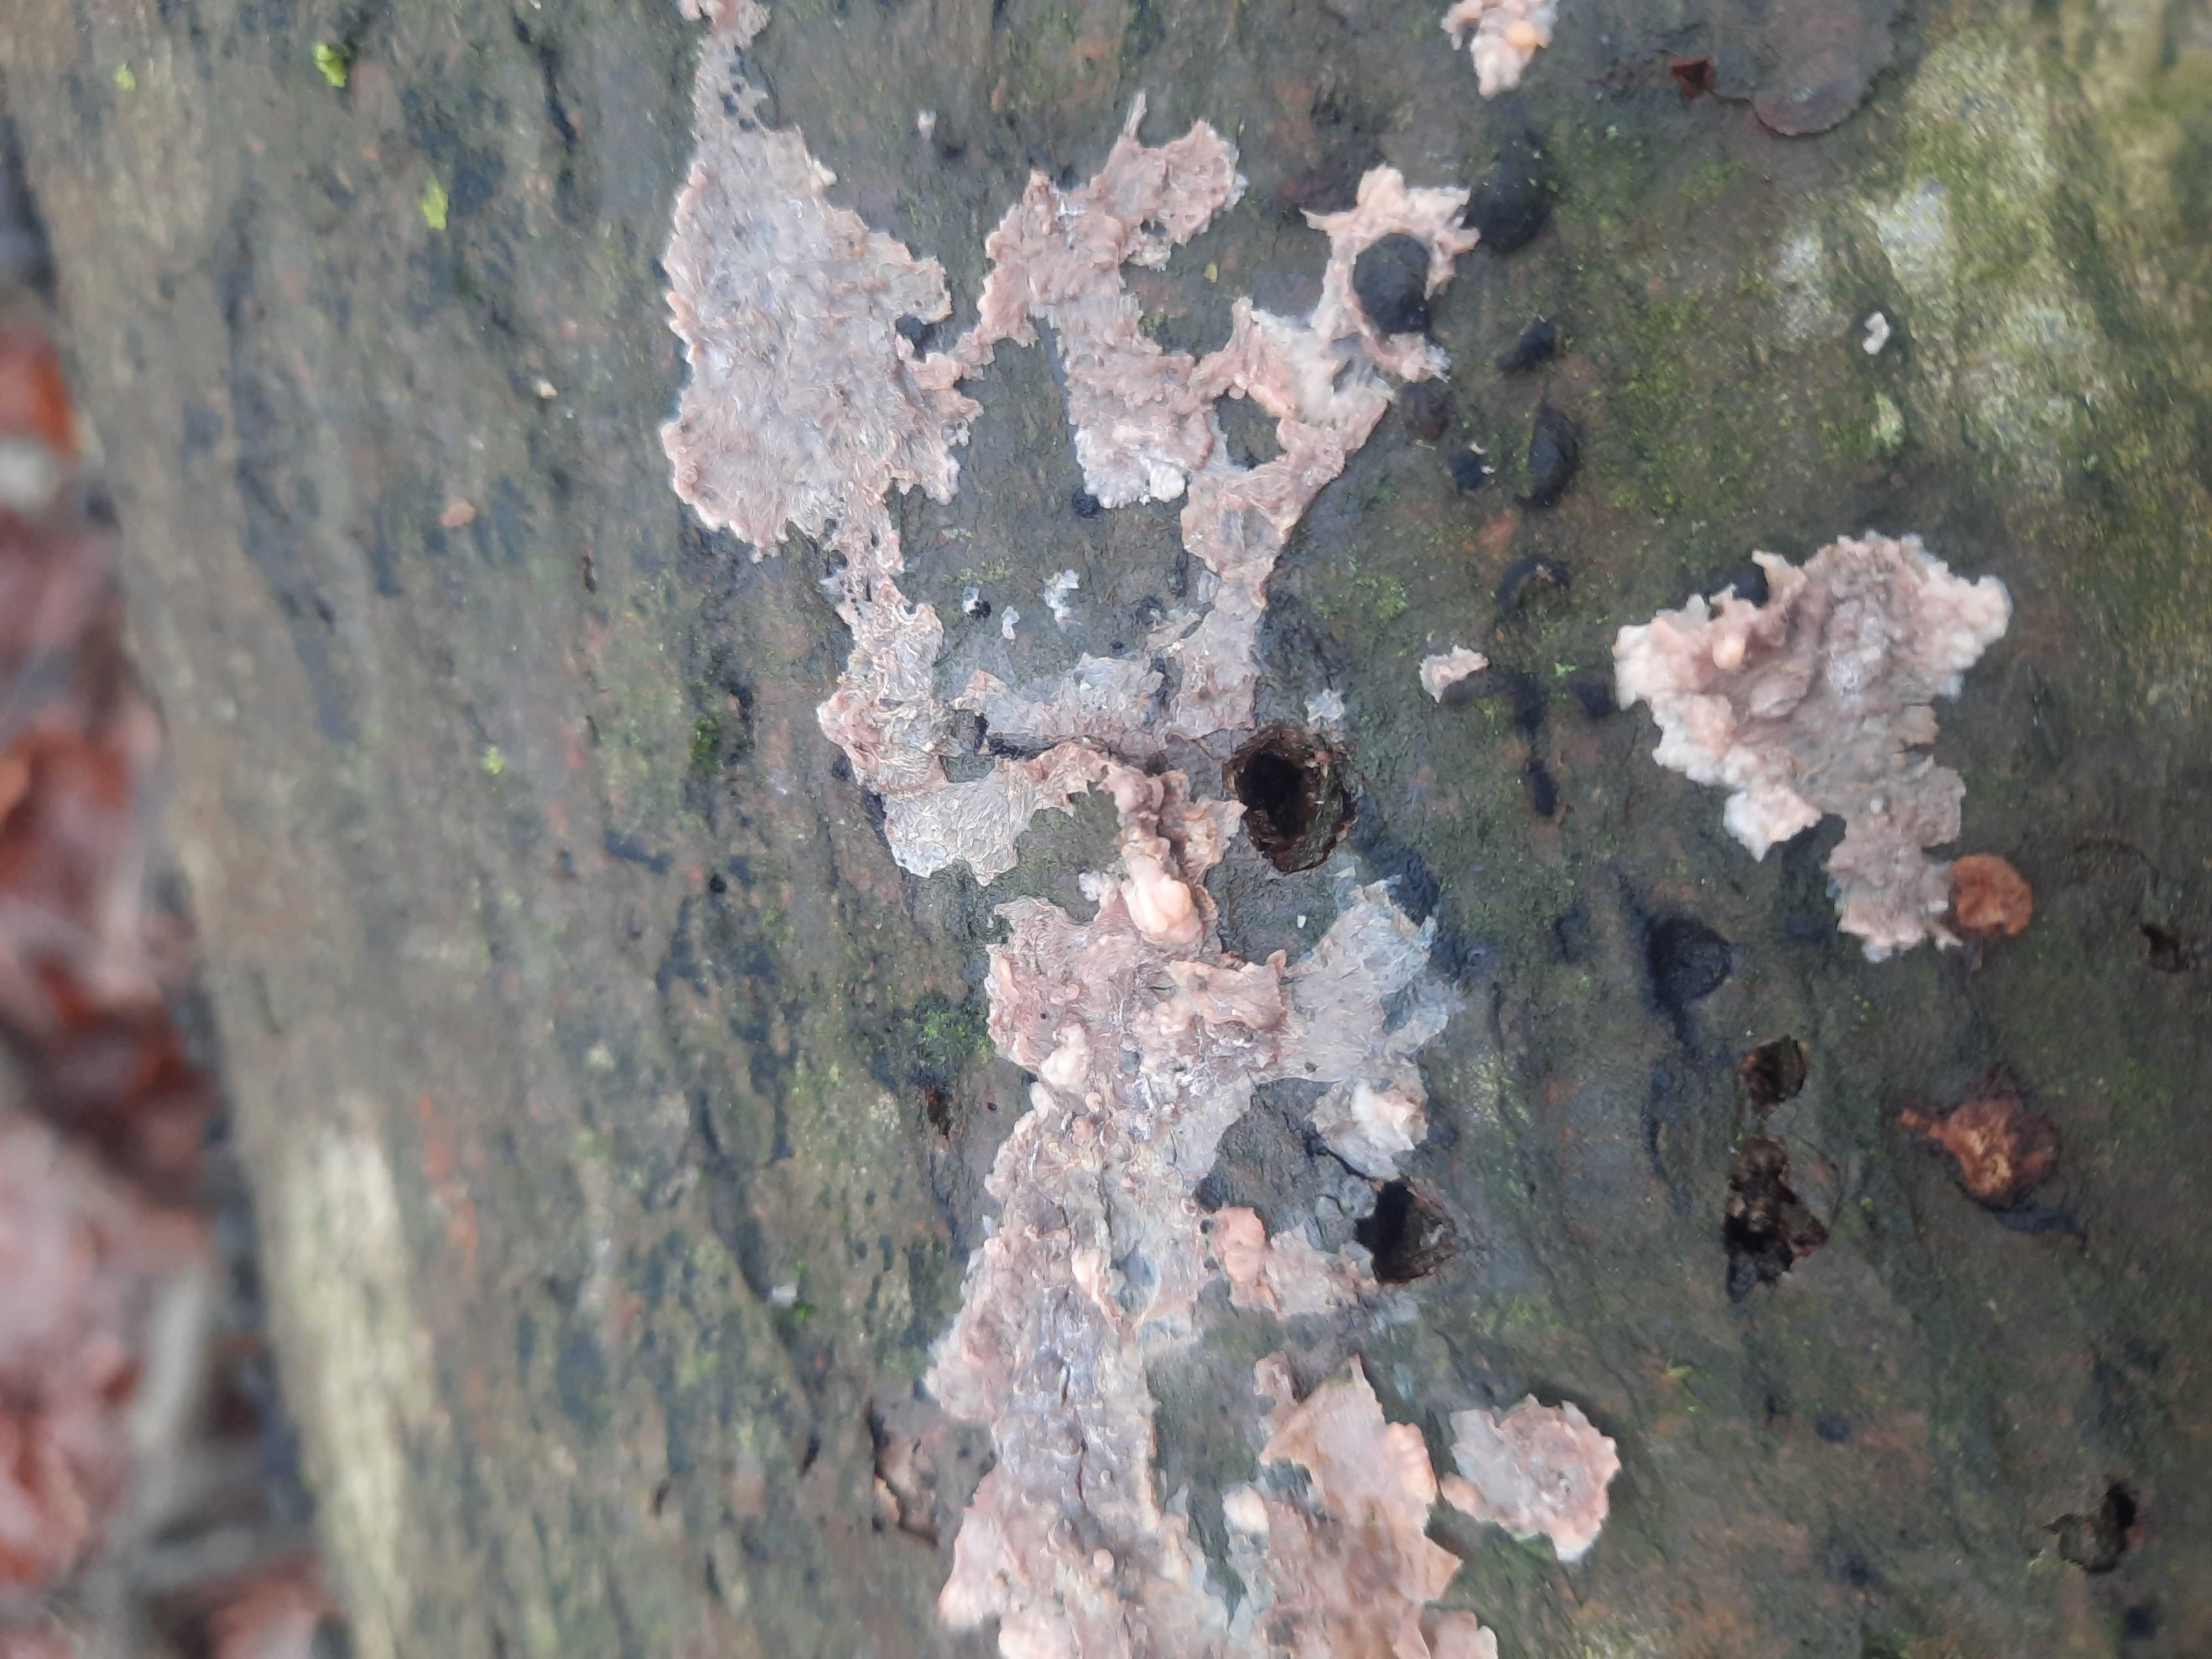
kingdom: Fungi
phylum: Basidiomycota
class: Agaricomycetes
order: Polyporales
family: Meruliaceae
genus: Phlebia
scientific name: Phlebia radiata
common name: stråle-åresvamp
